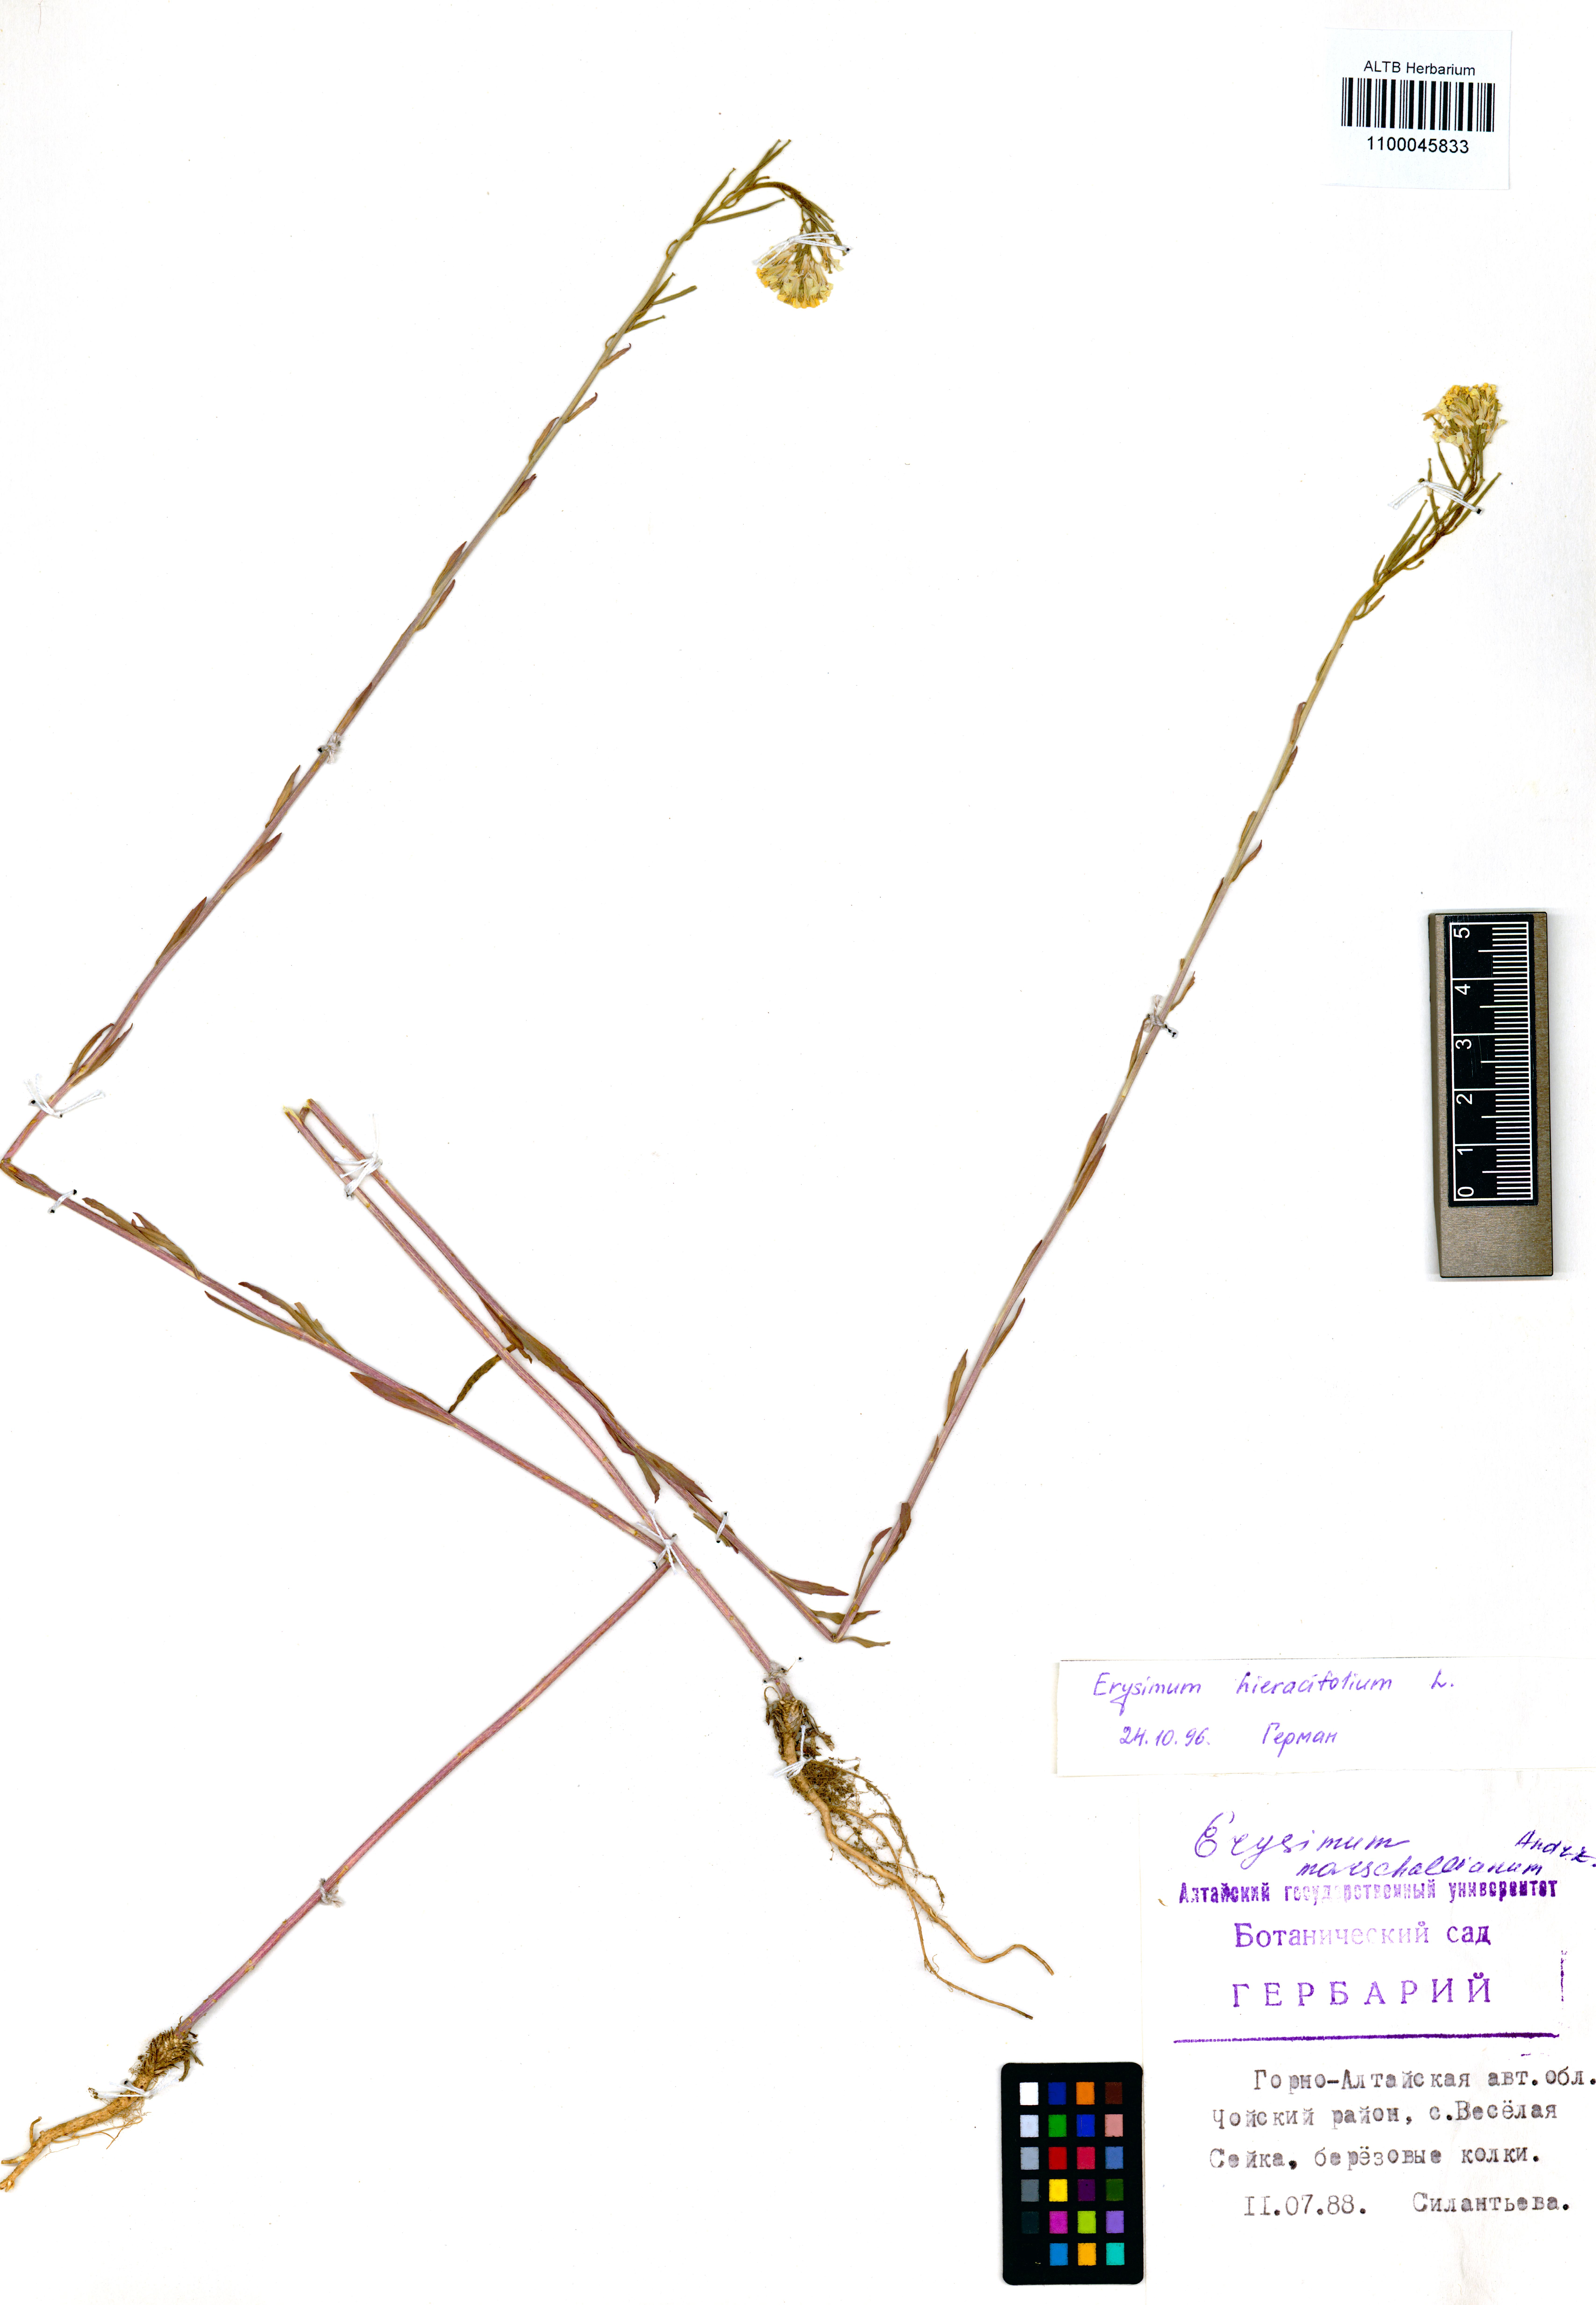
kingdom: Plantae
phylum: Tracheophyta
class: Magnoliopsida
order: Brassicales
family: Brassicaceae
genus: Erysimum
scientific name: Erysimum hieraciifolium
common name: European wallflower
